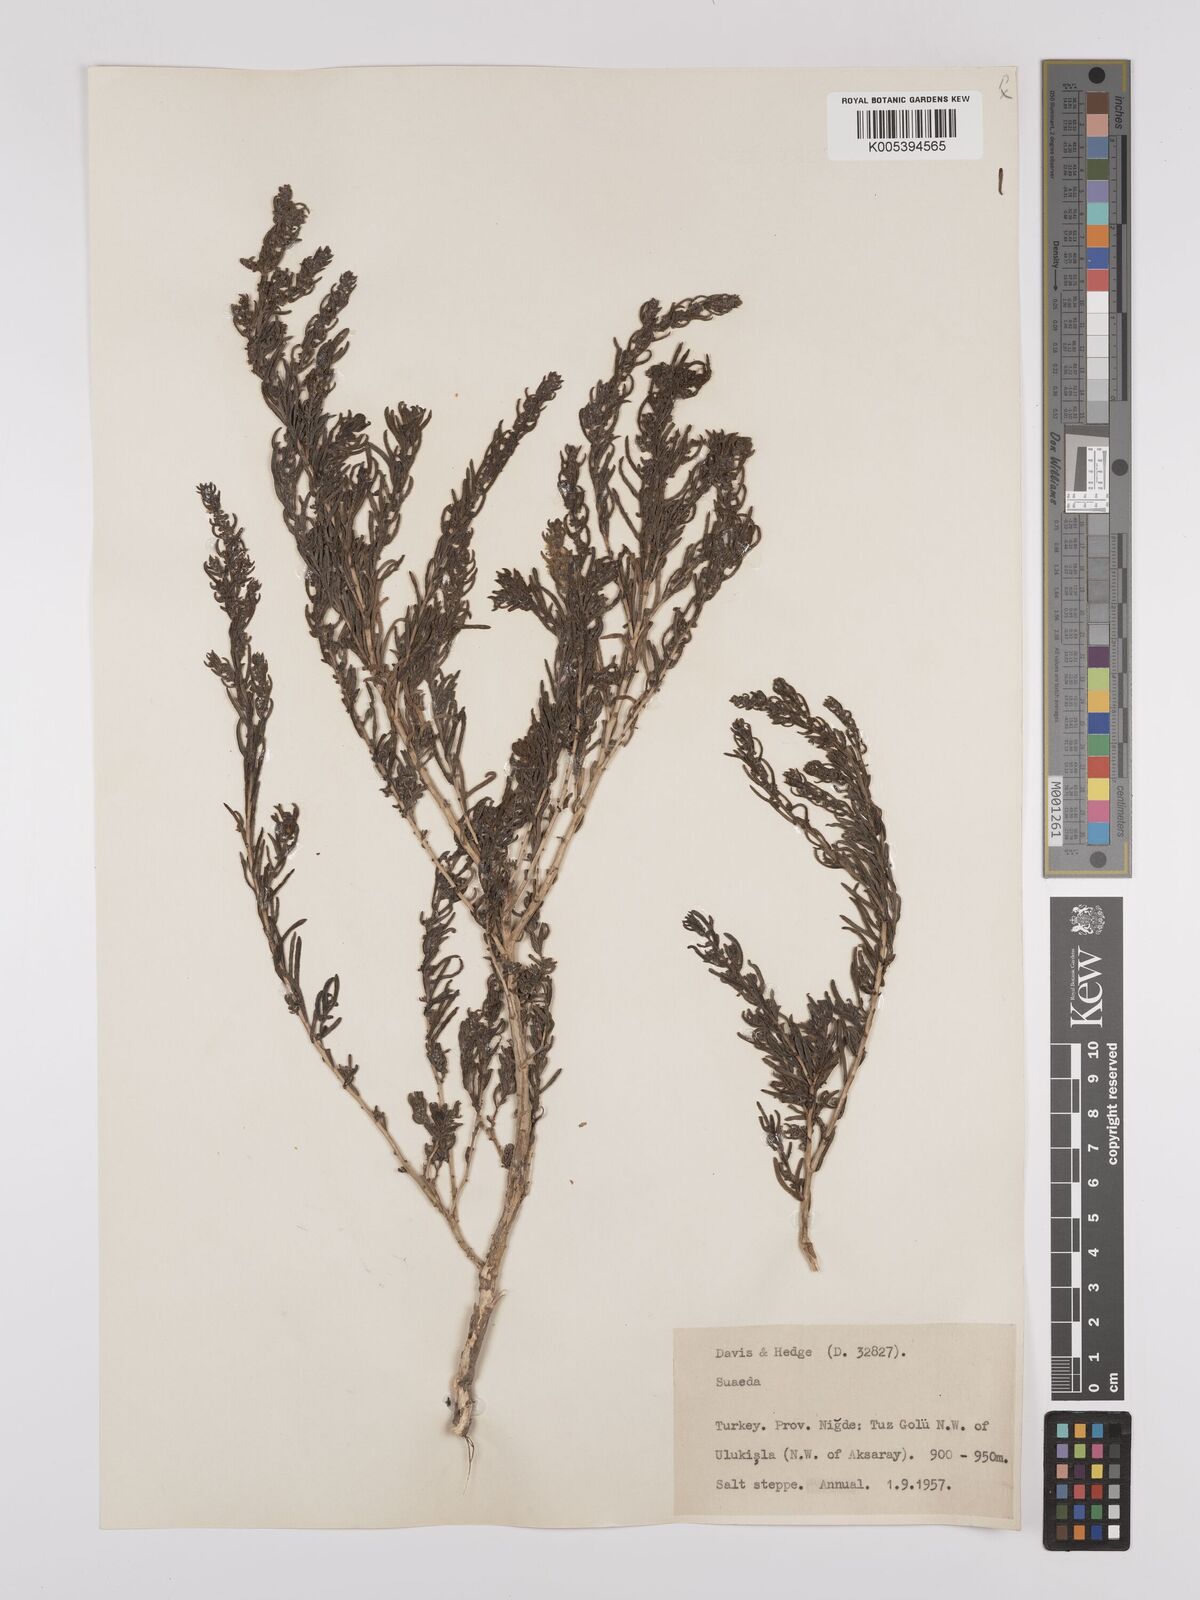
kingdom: Plantae
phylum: Tracheophyta
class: Magnoliopsida
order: Caryophyllales
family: Amaranthaceae
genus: Suaeda
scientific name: Suaeda
